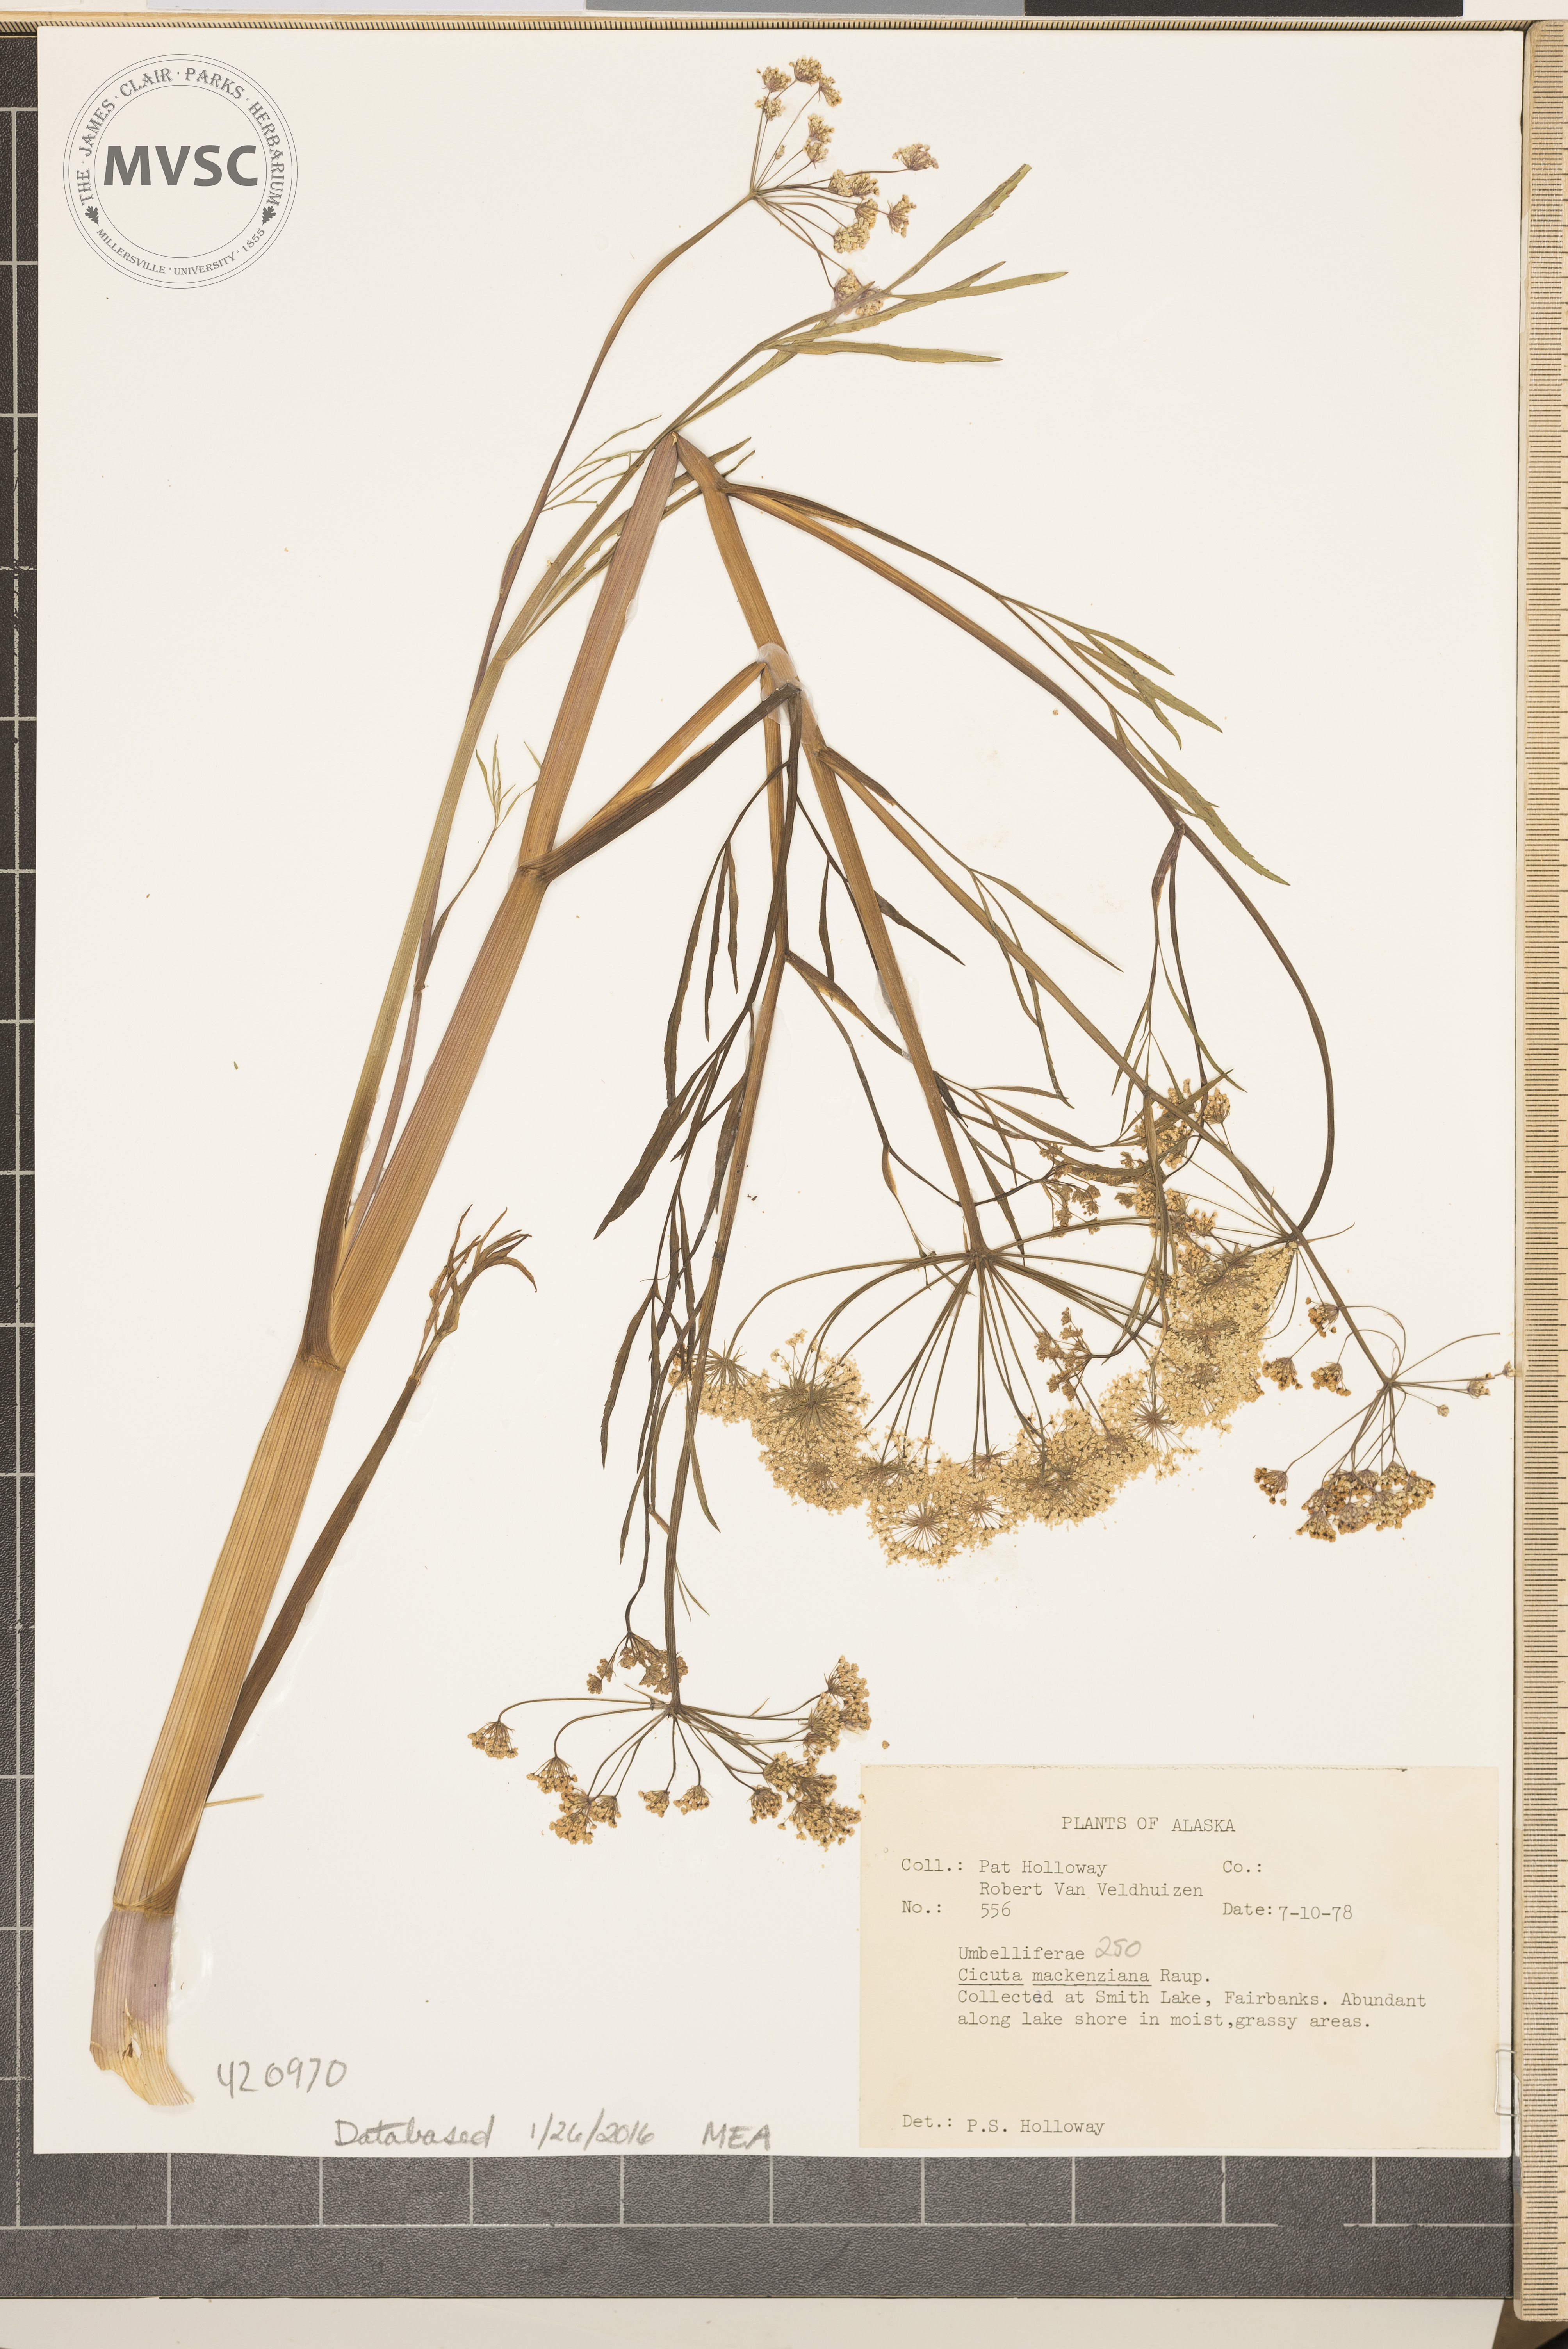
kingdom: Plantae
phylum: Tracheophyta
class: Magnoliopsida
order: Apiales
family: Apiaceae
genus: Cicuta
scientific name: Cicuta virosa
